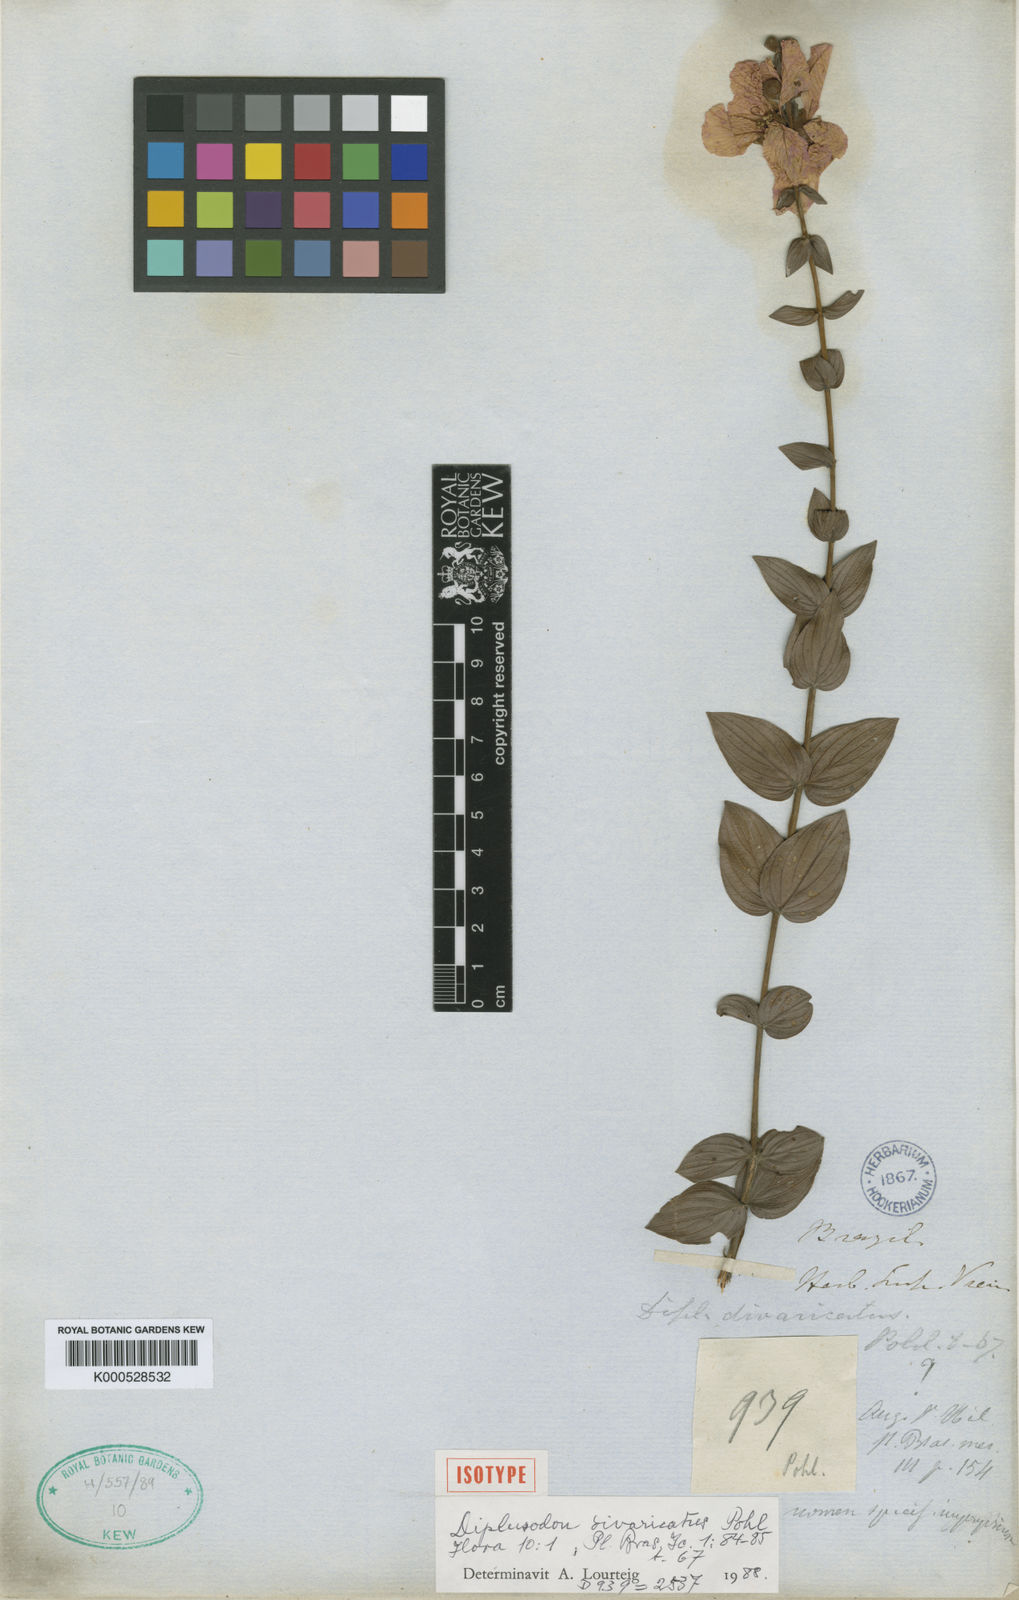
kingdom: Plantae
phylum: Tracheophyta
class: Magnoliopsida
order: Myrtales
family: Lythraceae
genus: Diplusodon
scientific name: Diplusodon divaricatus
